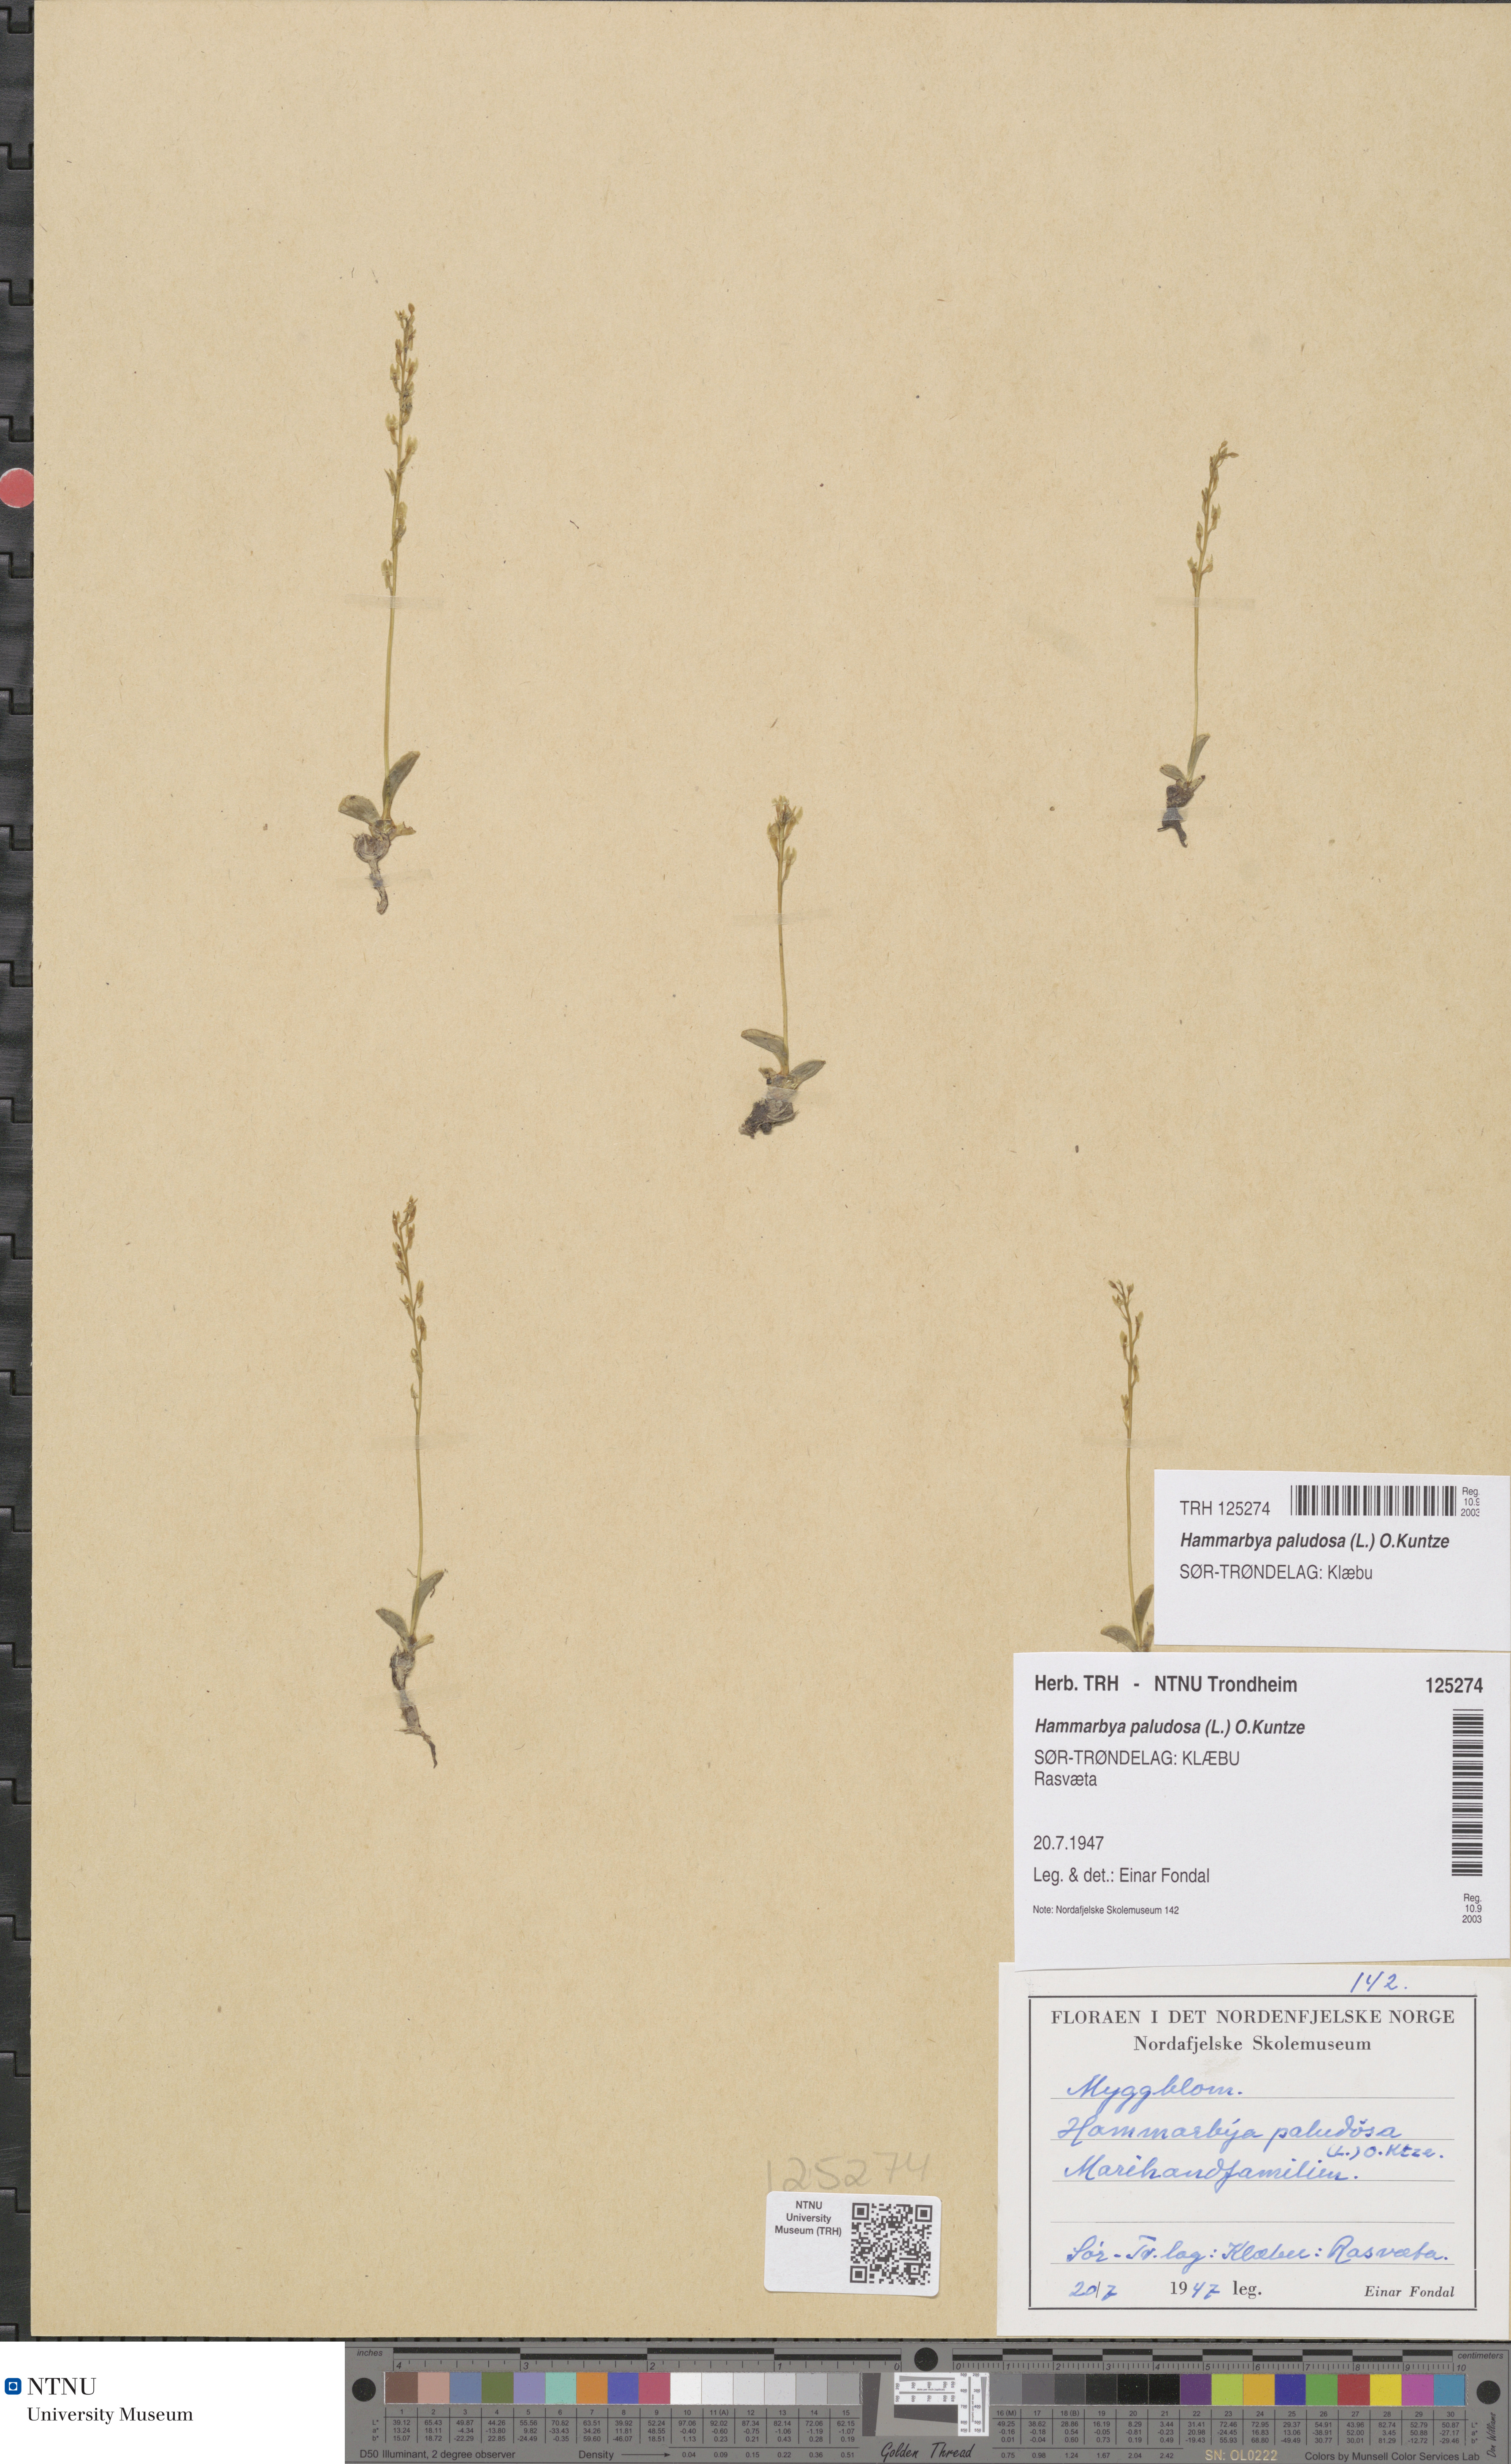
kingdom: Plantae
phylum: Tracheophyta
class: Liliopsida
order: Asparagales
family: Orchidaceae
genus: Hammarbya
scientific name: Hammarbya paludosa
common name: Bog orchid
